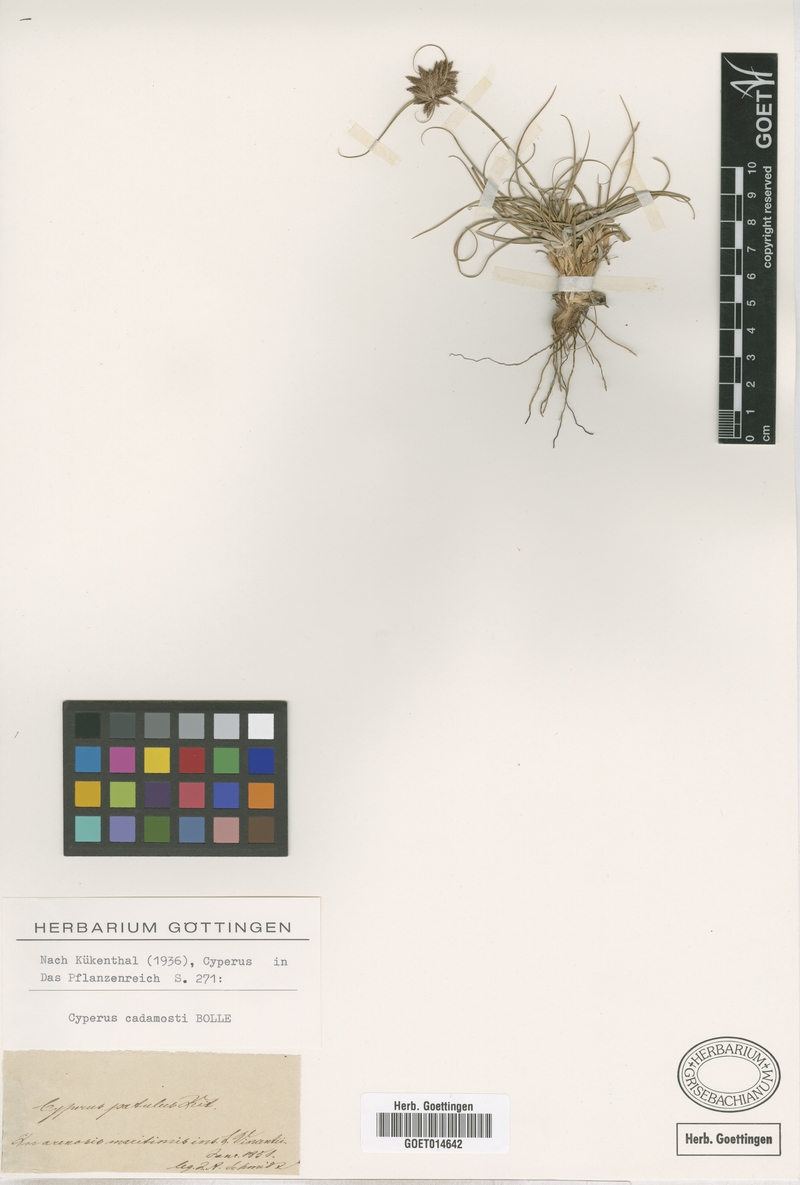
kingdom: Plantae
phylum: Tracheophyta
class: Liliopsida
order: Poales
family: Cyperaceae
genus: Cyperus
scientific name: Cyperus jeminicus
